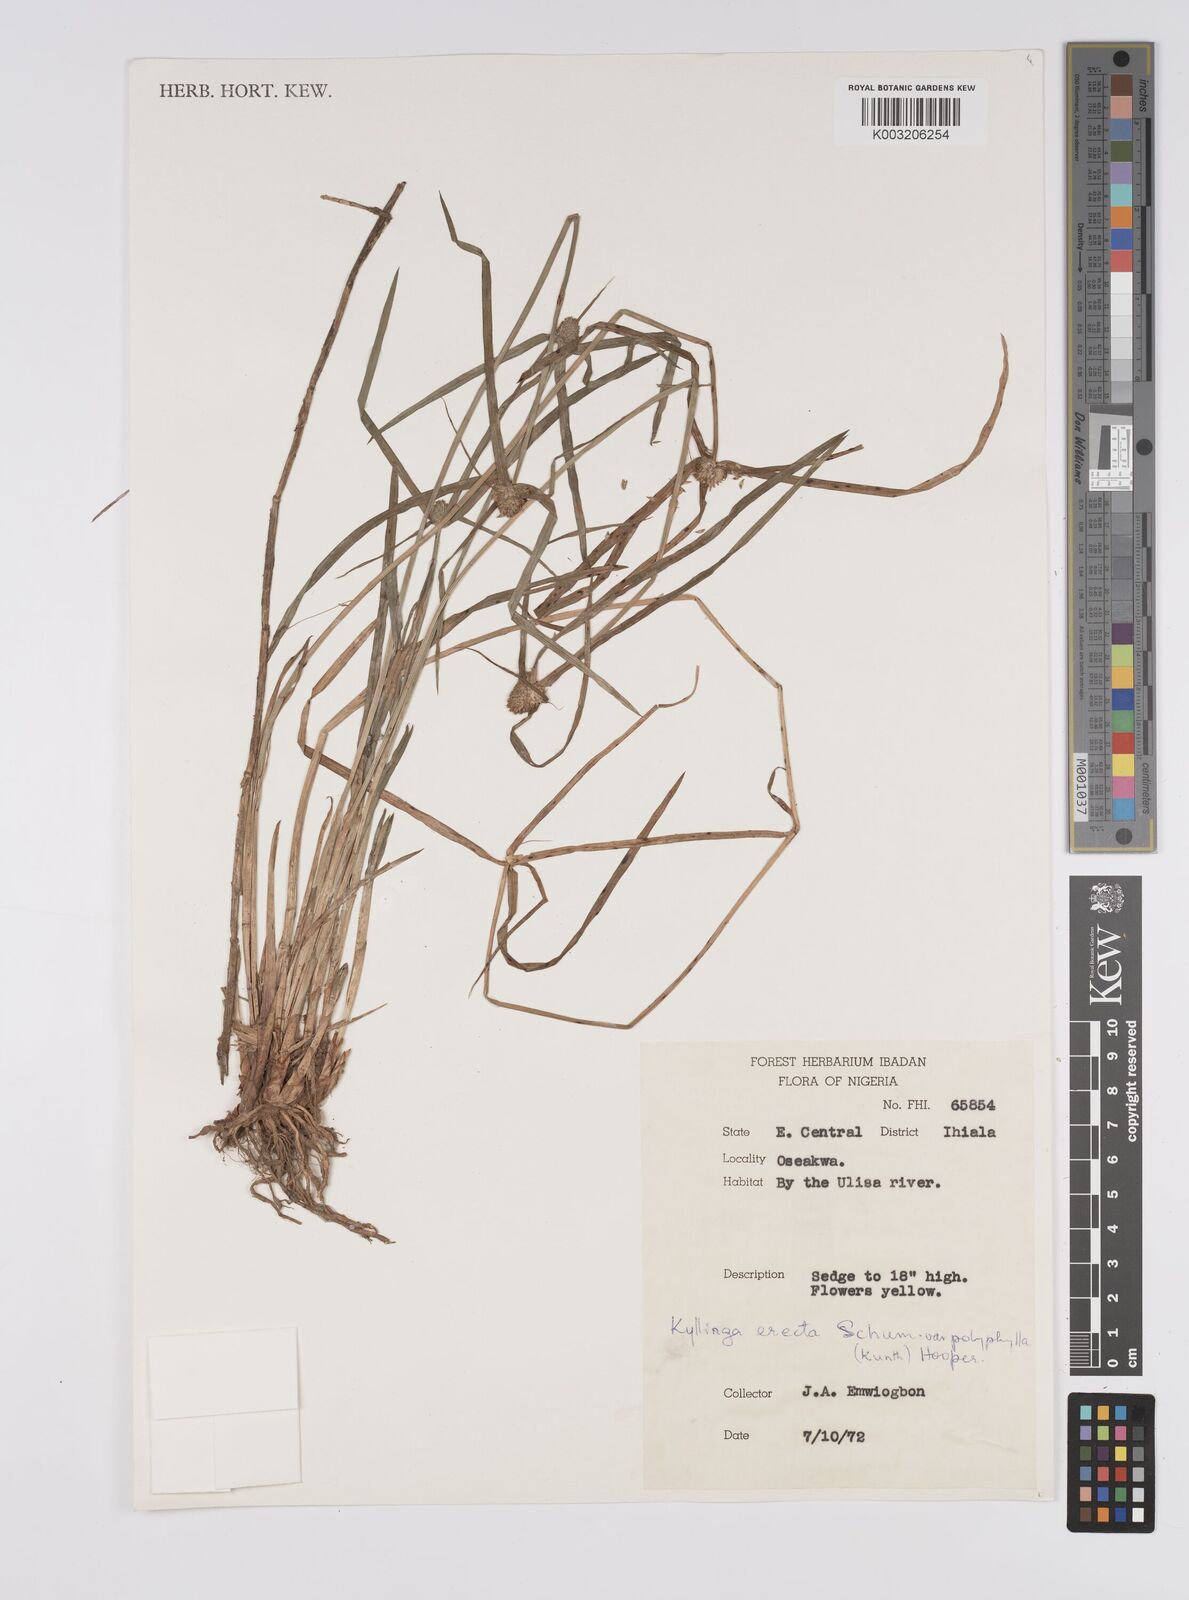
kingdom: Plantae
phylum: Tracheophyta
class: Liliopsida
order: Poales
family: Cyperaceae
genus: Cyperus
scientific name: Cyperus
